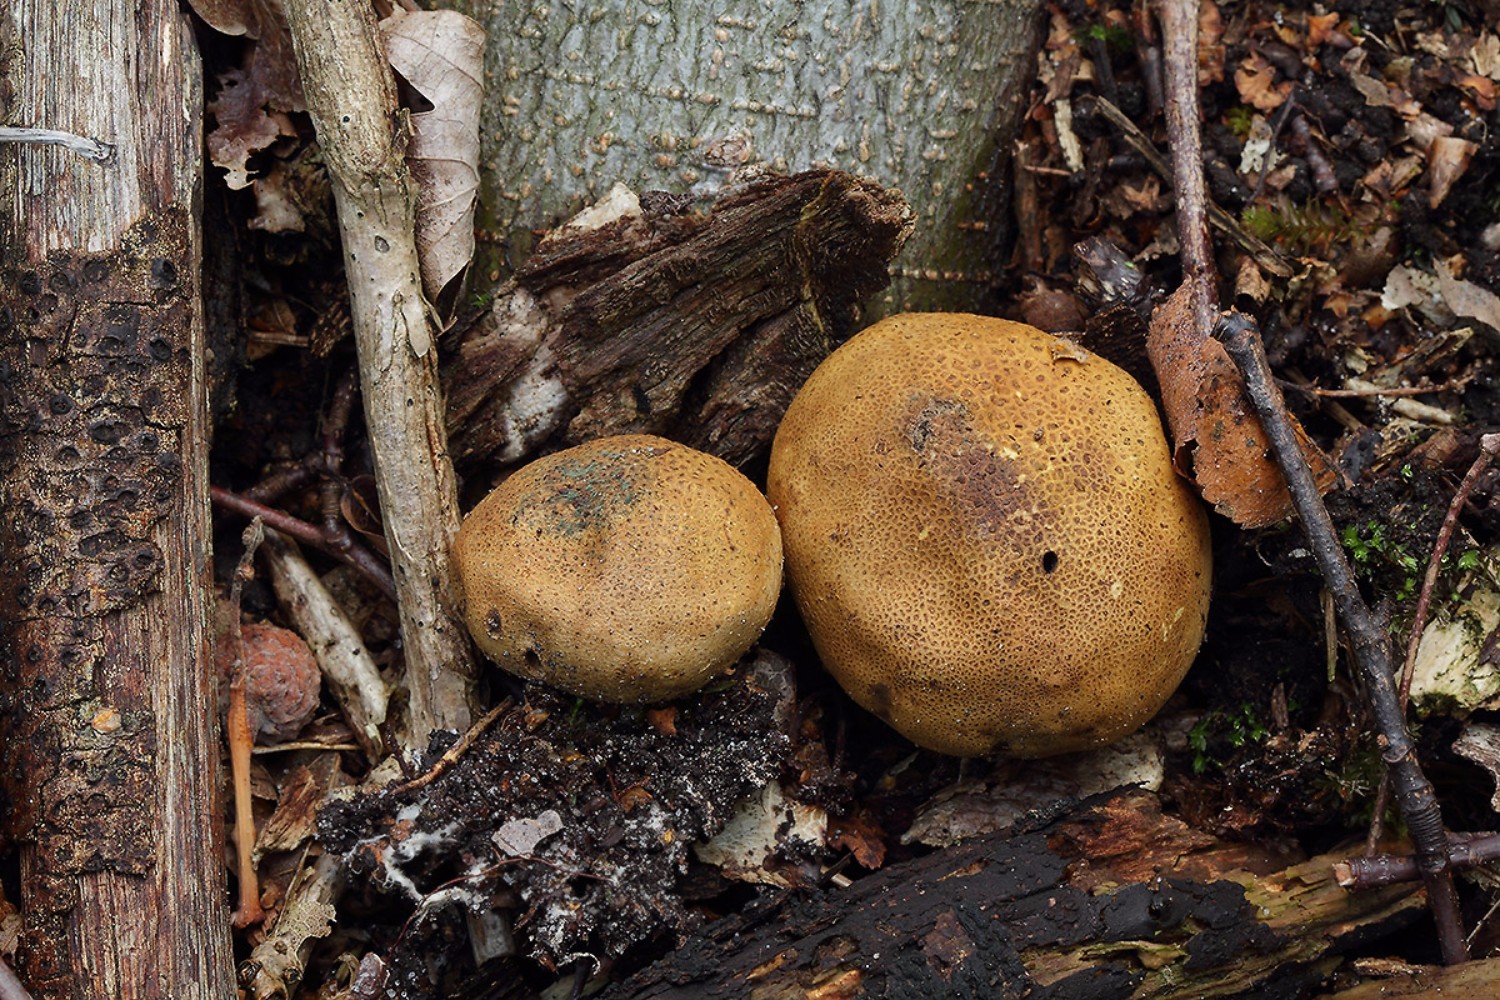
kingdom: Fungi
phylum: Basidiomycota
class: Agaricomycetes
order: Boletales
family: Sclerodermataceae
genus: Scleroderma
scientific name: Scleroderma areolatum
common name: plettet bruskbold
